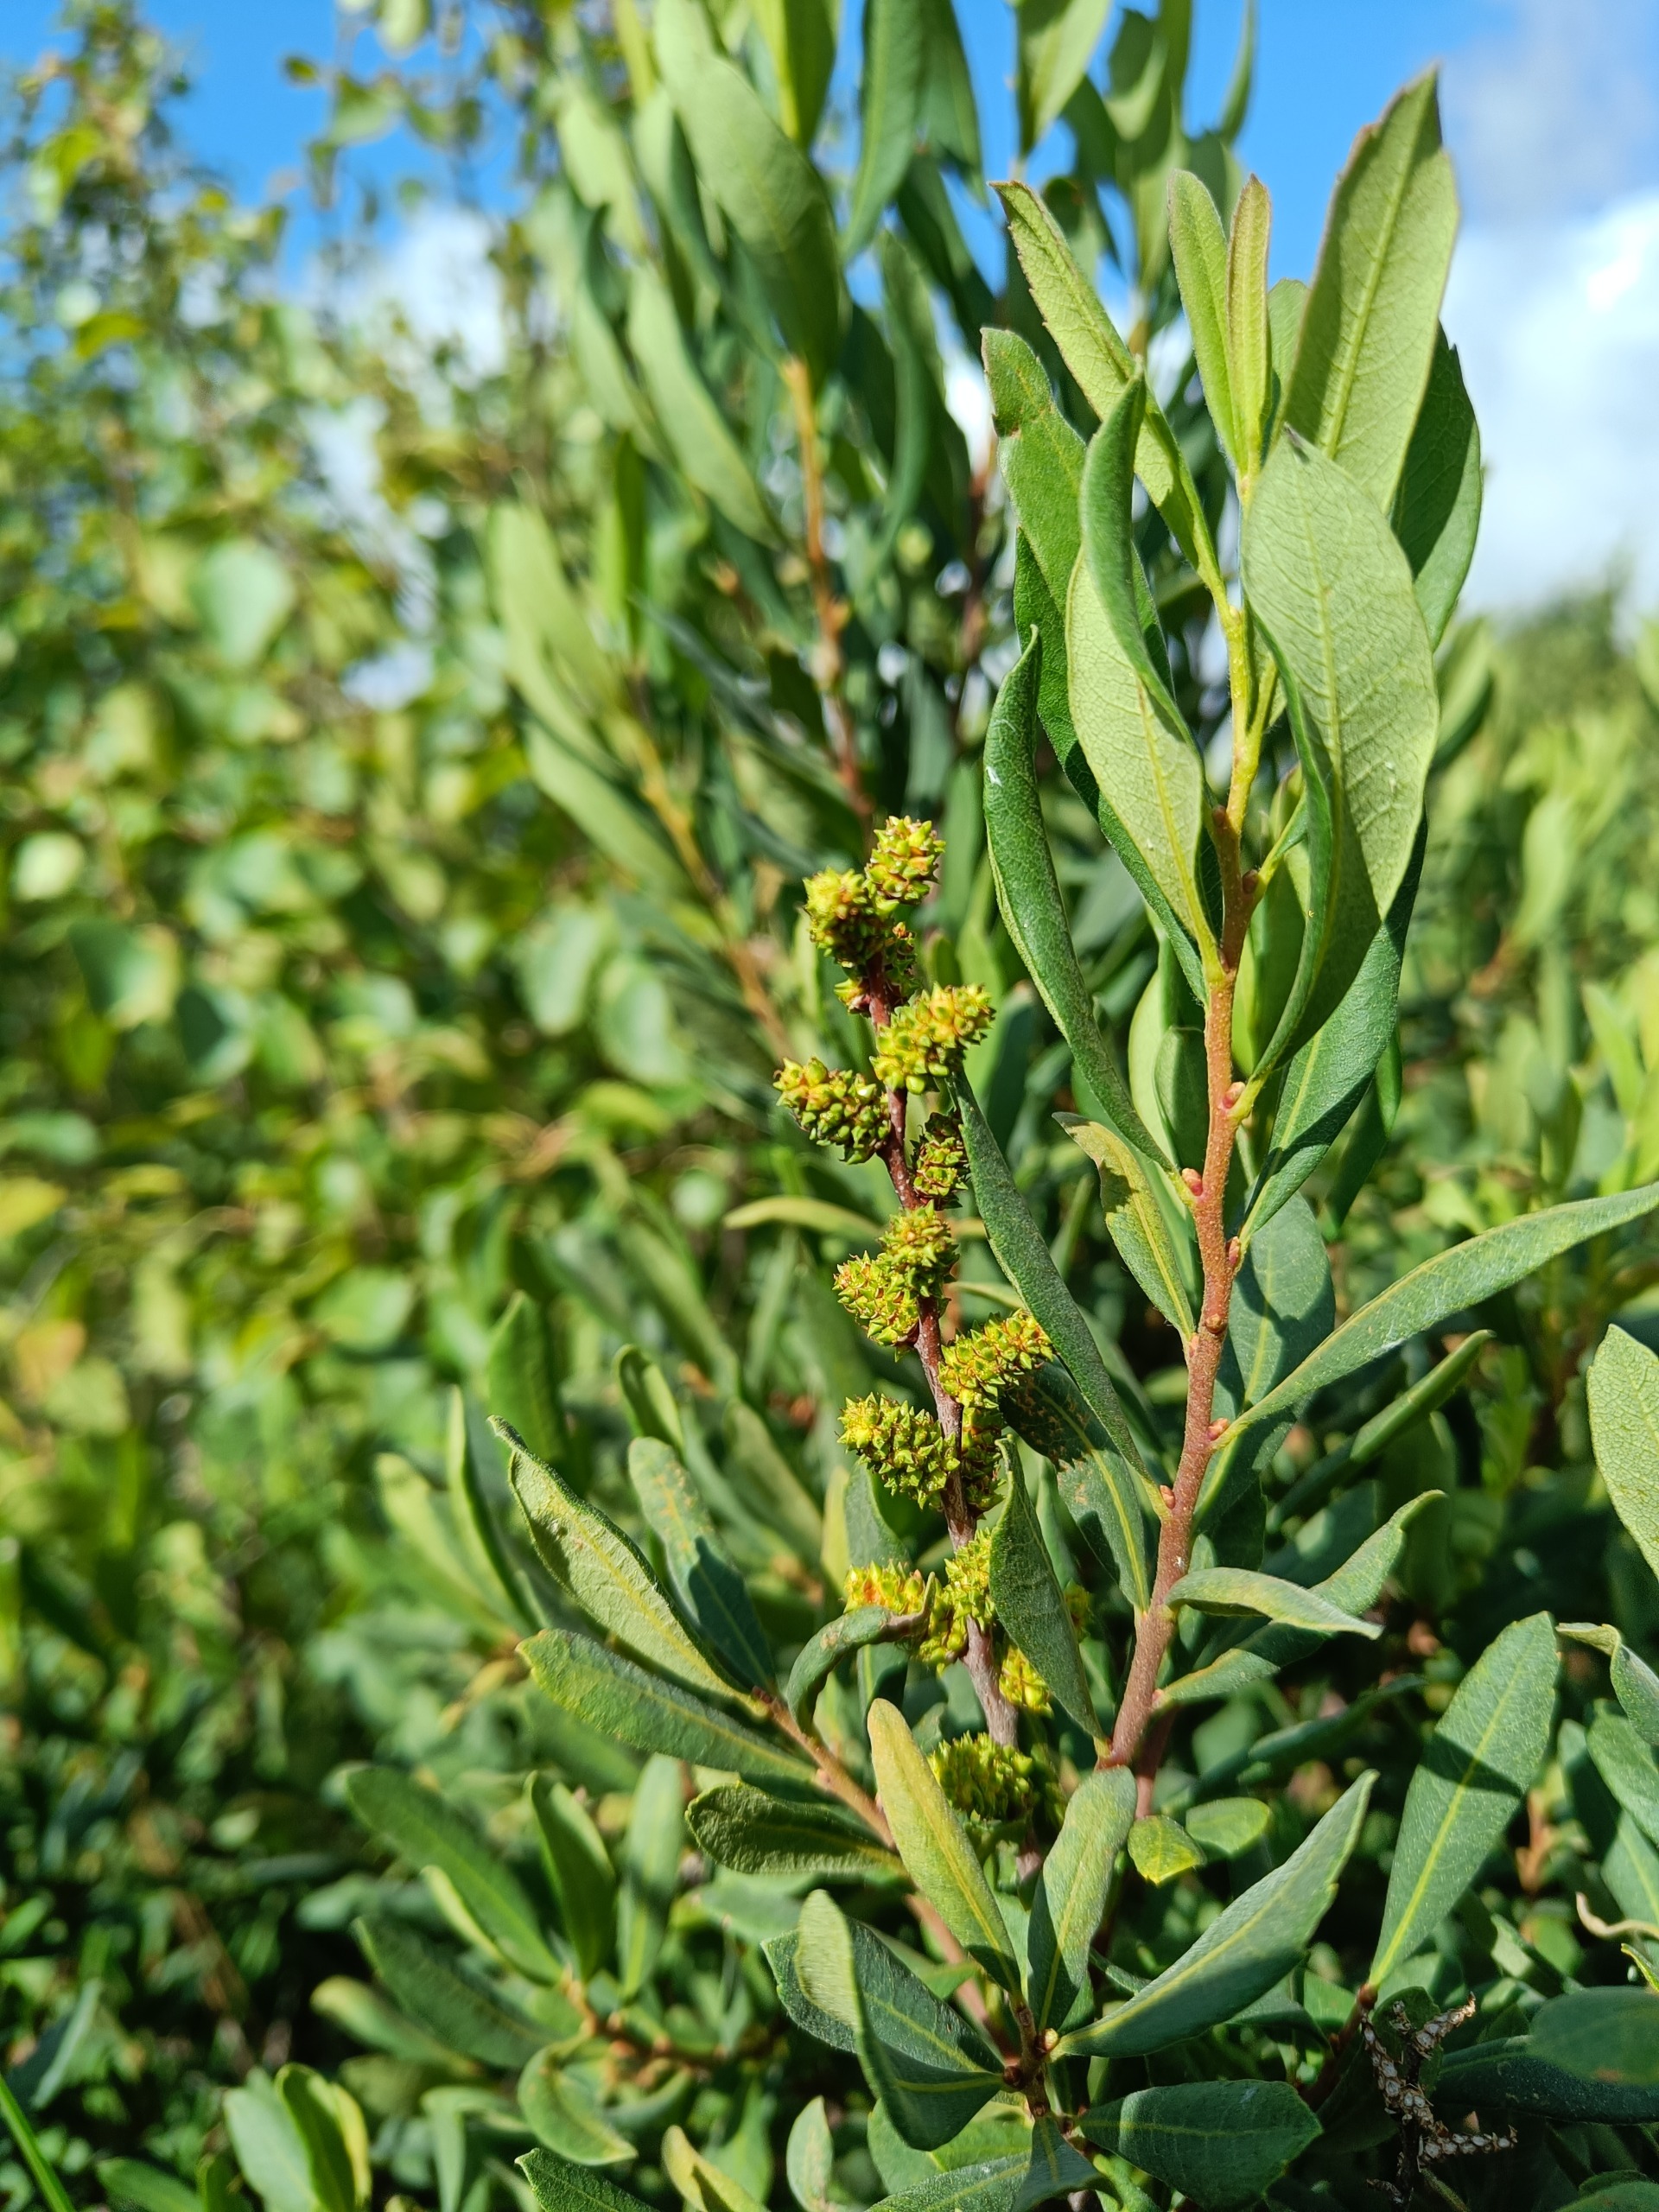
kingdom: Plantae
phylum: Tracheophyta
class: Magnoliopsida
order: Fagales
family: Myricaceae
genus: Myrica
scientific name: Myrica gale
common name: Pors
